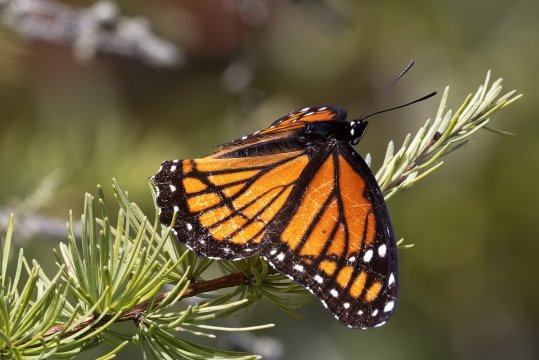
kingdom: Animalia
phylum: Arthropoda
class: Insecta
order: Lepidoptera
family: Nymphalidae
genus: Limenitis
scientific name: Limenitis archippus
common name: Viceroy
